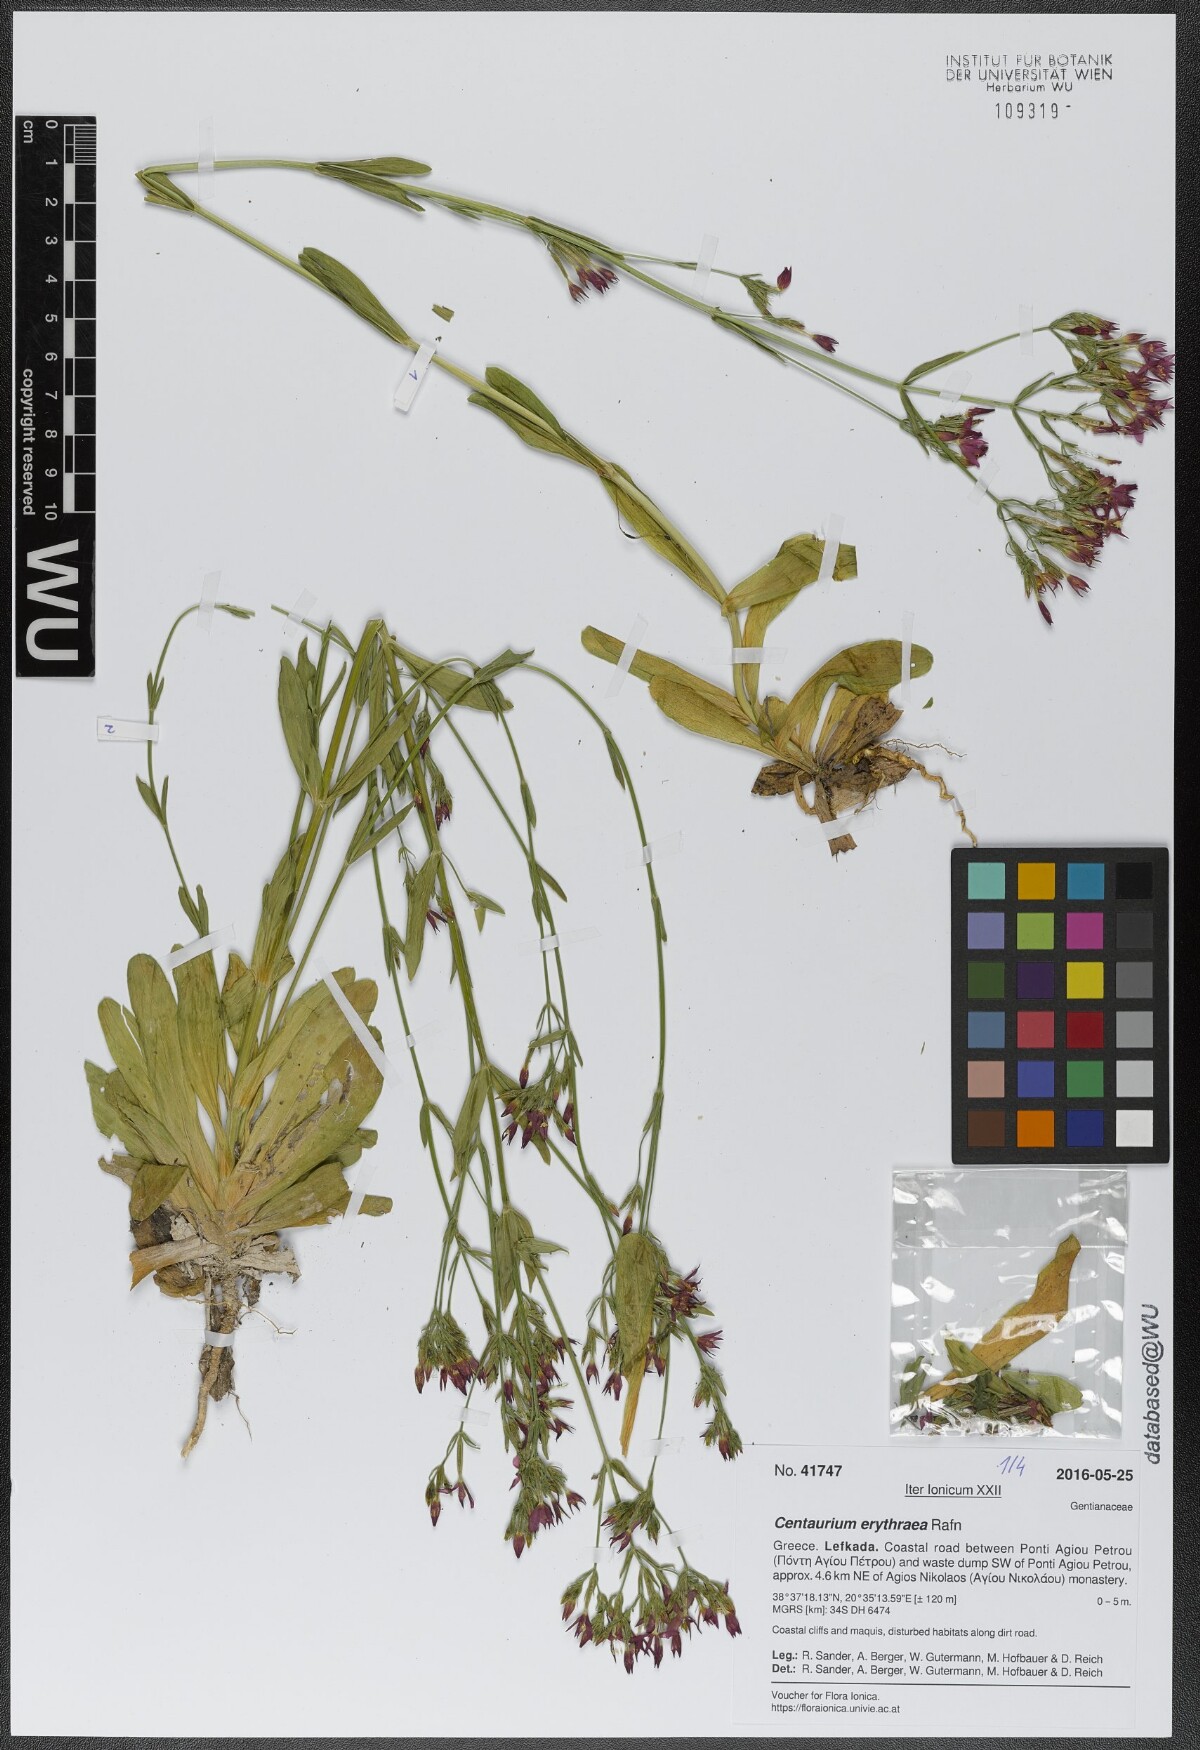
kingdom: Plantae
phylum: Tracheophyta
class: Magnoliopsida
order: Gentianales
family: Gentianaceae
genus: Centaurium
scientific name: Centaurium erythraea
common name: Common centaury
